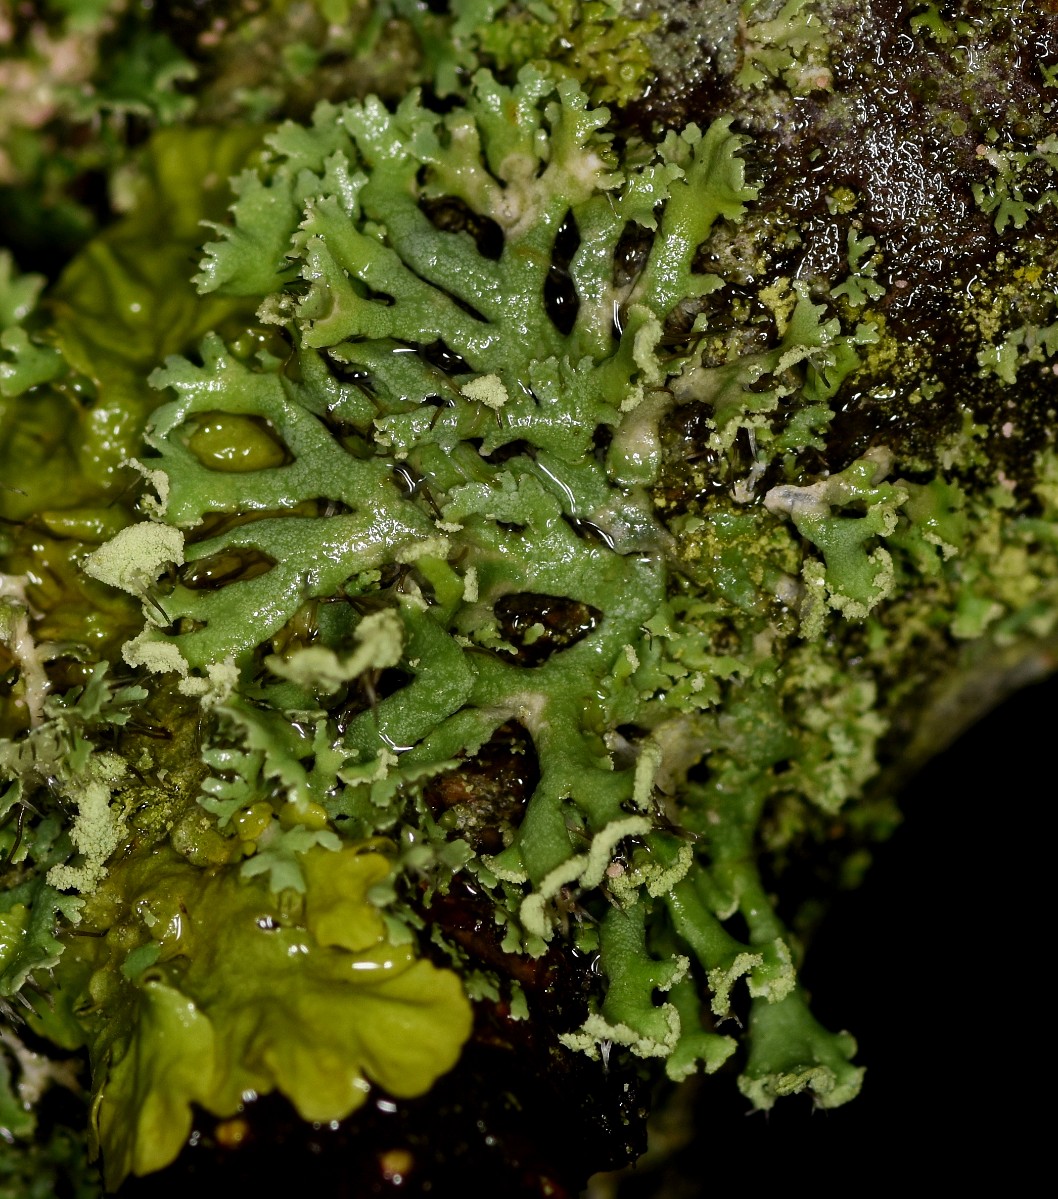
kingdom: Fungi
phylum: Ascomycota
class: Lecanoromycetes
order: Caliciales
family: Physciaceae
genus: Physcia
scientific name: Physcia tenella
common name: spæd rosetlav
